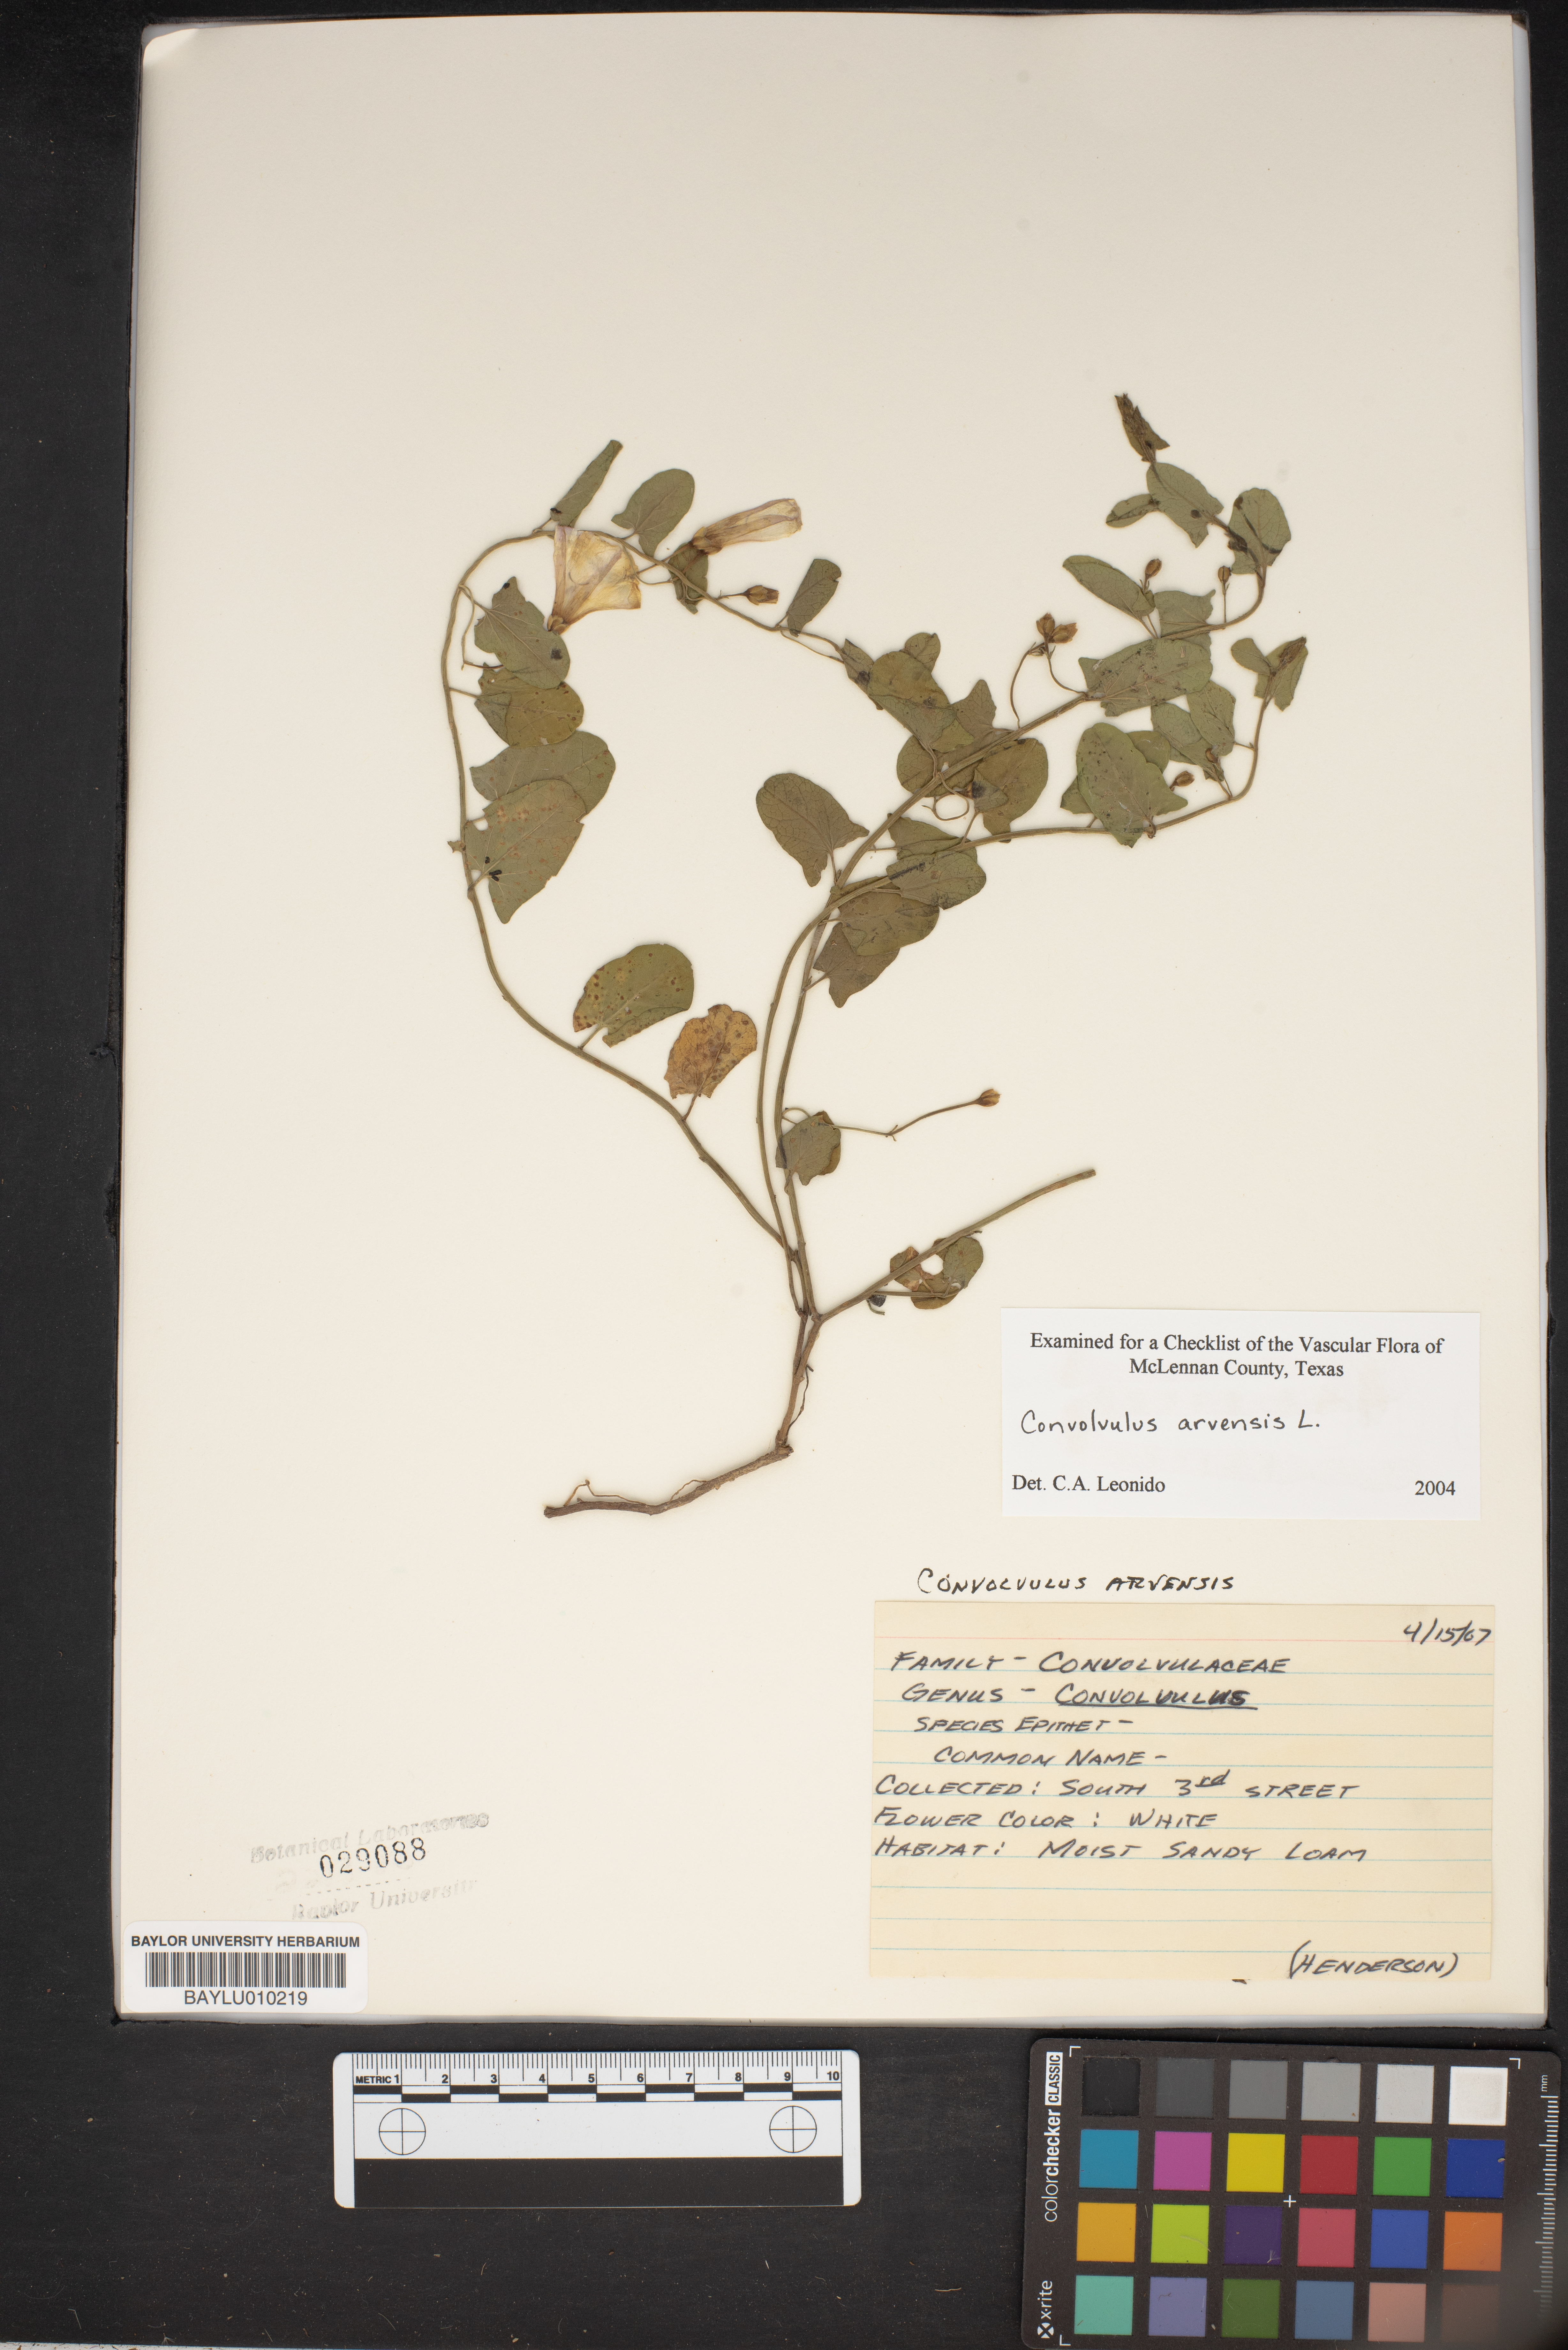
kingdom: Plantae
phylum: Tracheophyta
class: Magnoliopsida
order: Solanales
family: Convolvulaceae
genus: Convolvulus
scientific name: Convolvulus arvensis
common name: Field bindweed
